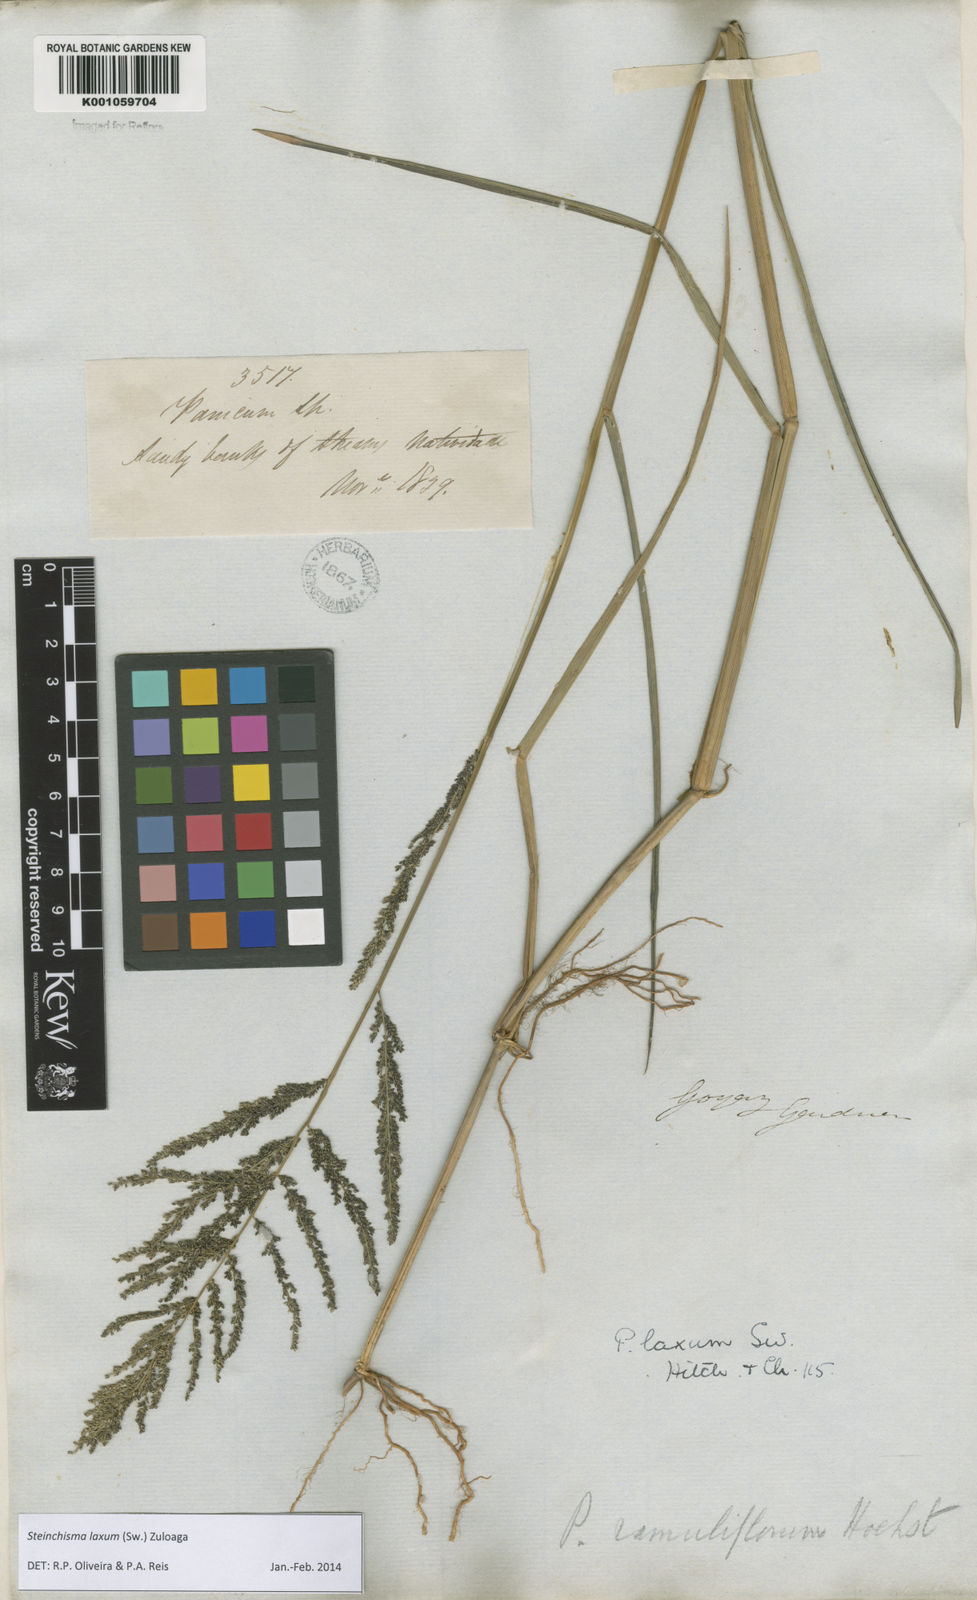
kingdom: Plantae
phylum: Tracheophyta
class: Liliopsida
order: Poales
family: Poaceae
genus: Steinchisma
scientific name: Steinchisma laxum
